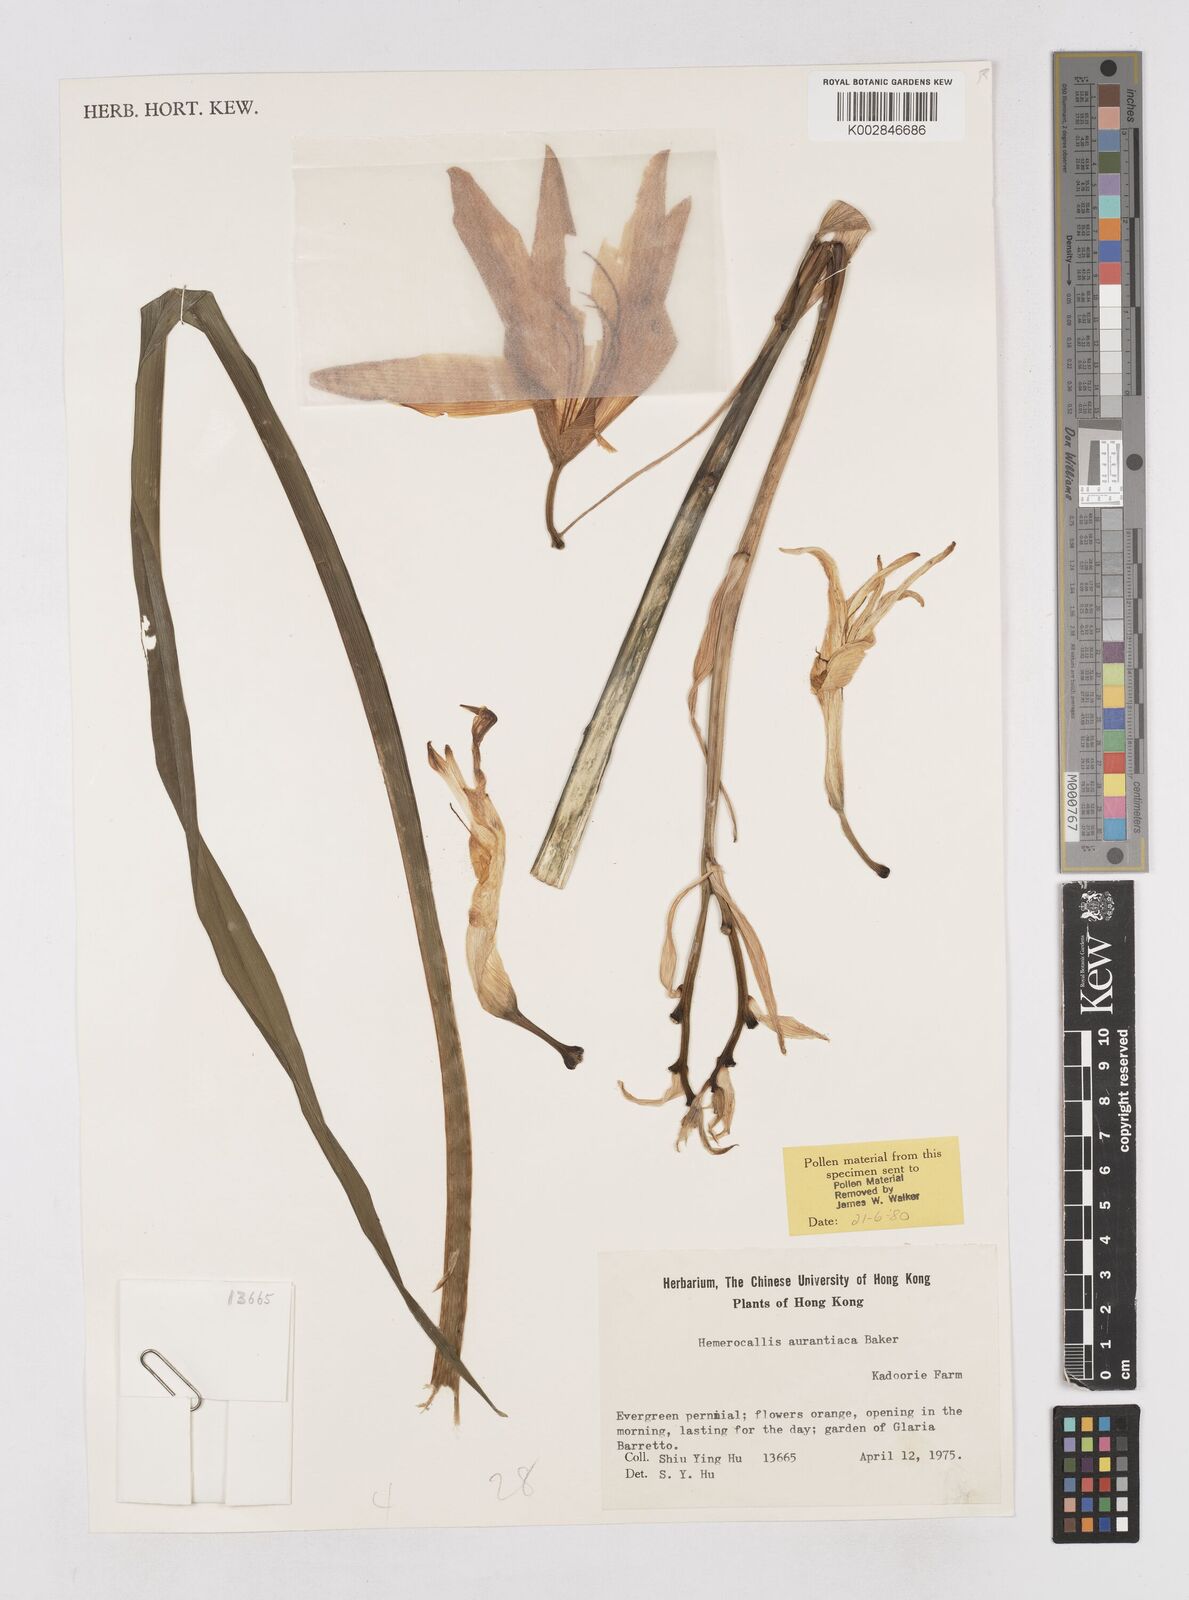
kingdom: Plantae
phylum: Tracheophyta
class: Liliopsida
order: Asparagales
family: Asphodelaceae
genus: Hemerocallis
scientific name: Hemerocallis fulva
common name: Orange day-lily
